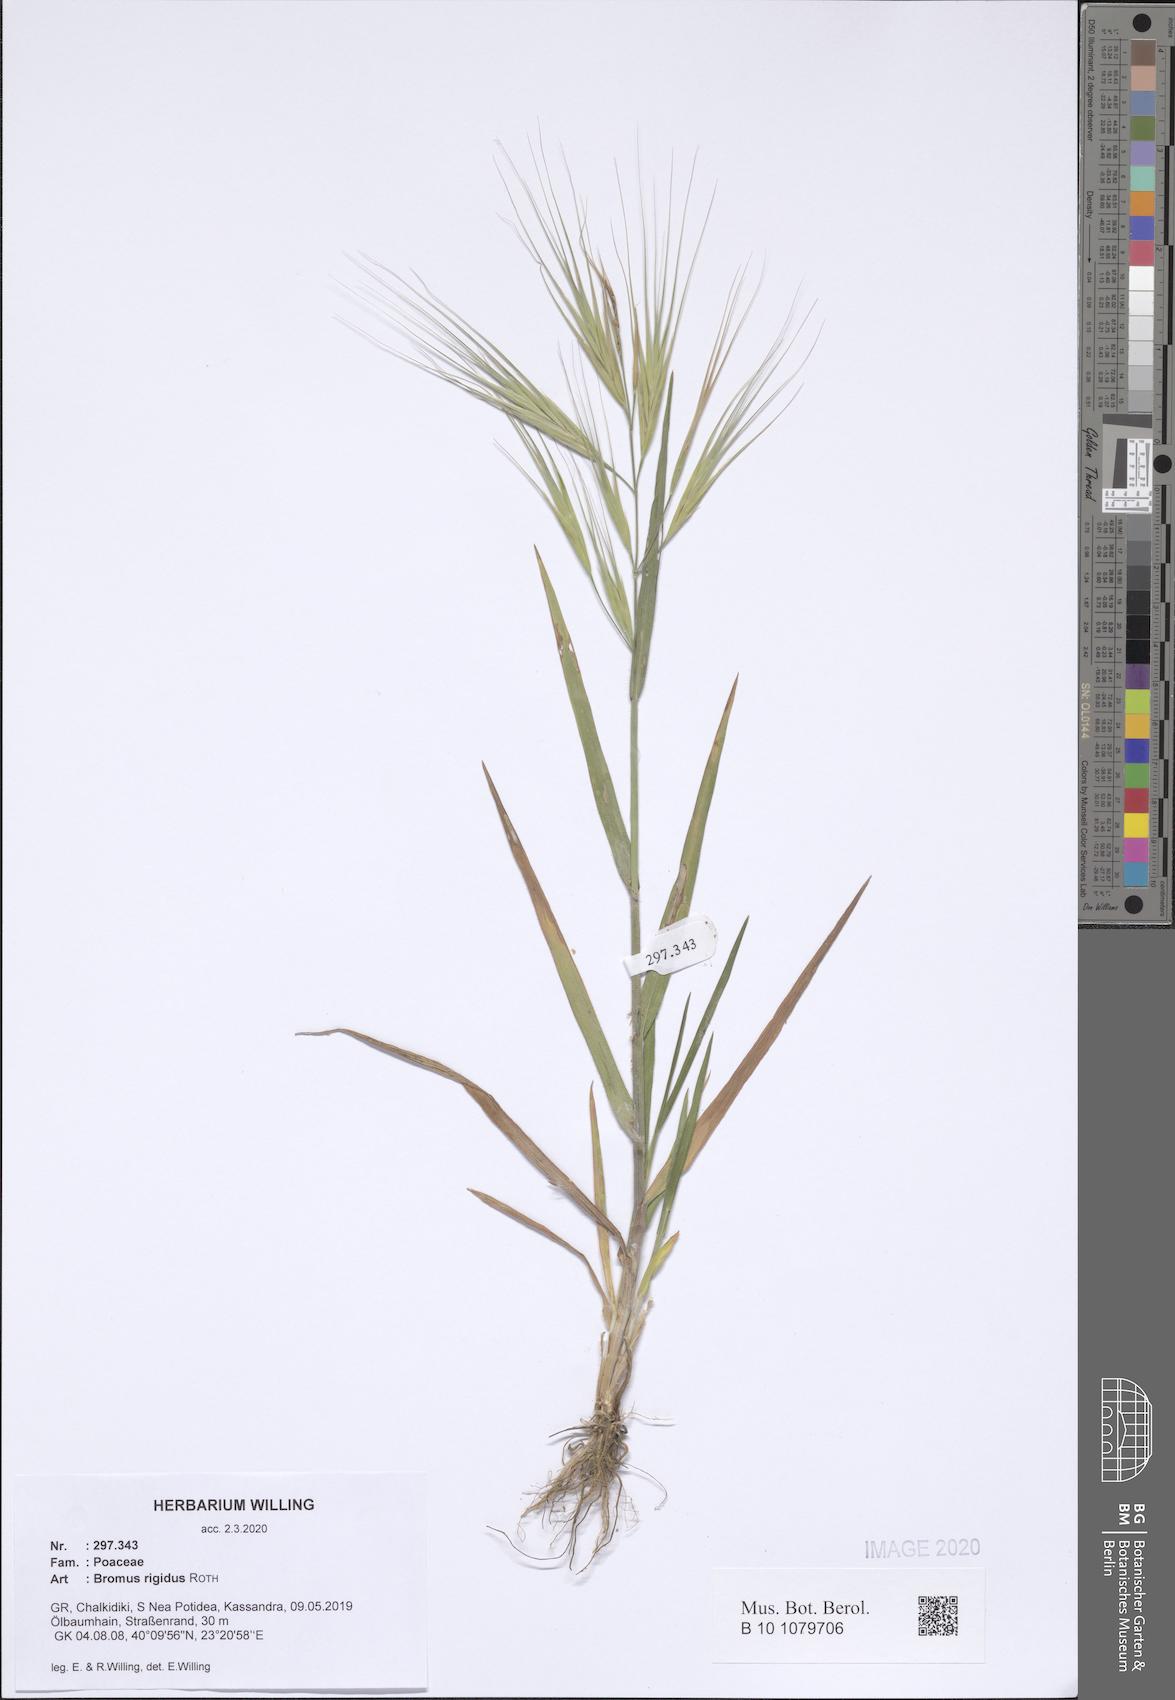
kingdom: Plantae
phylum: Tracheophyta
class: Liliopsida
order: Poales
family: Poaceae
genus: Bromus
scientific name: Bromus rigidus
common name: Ripgut brome
